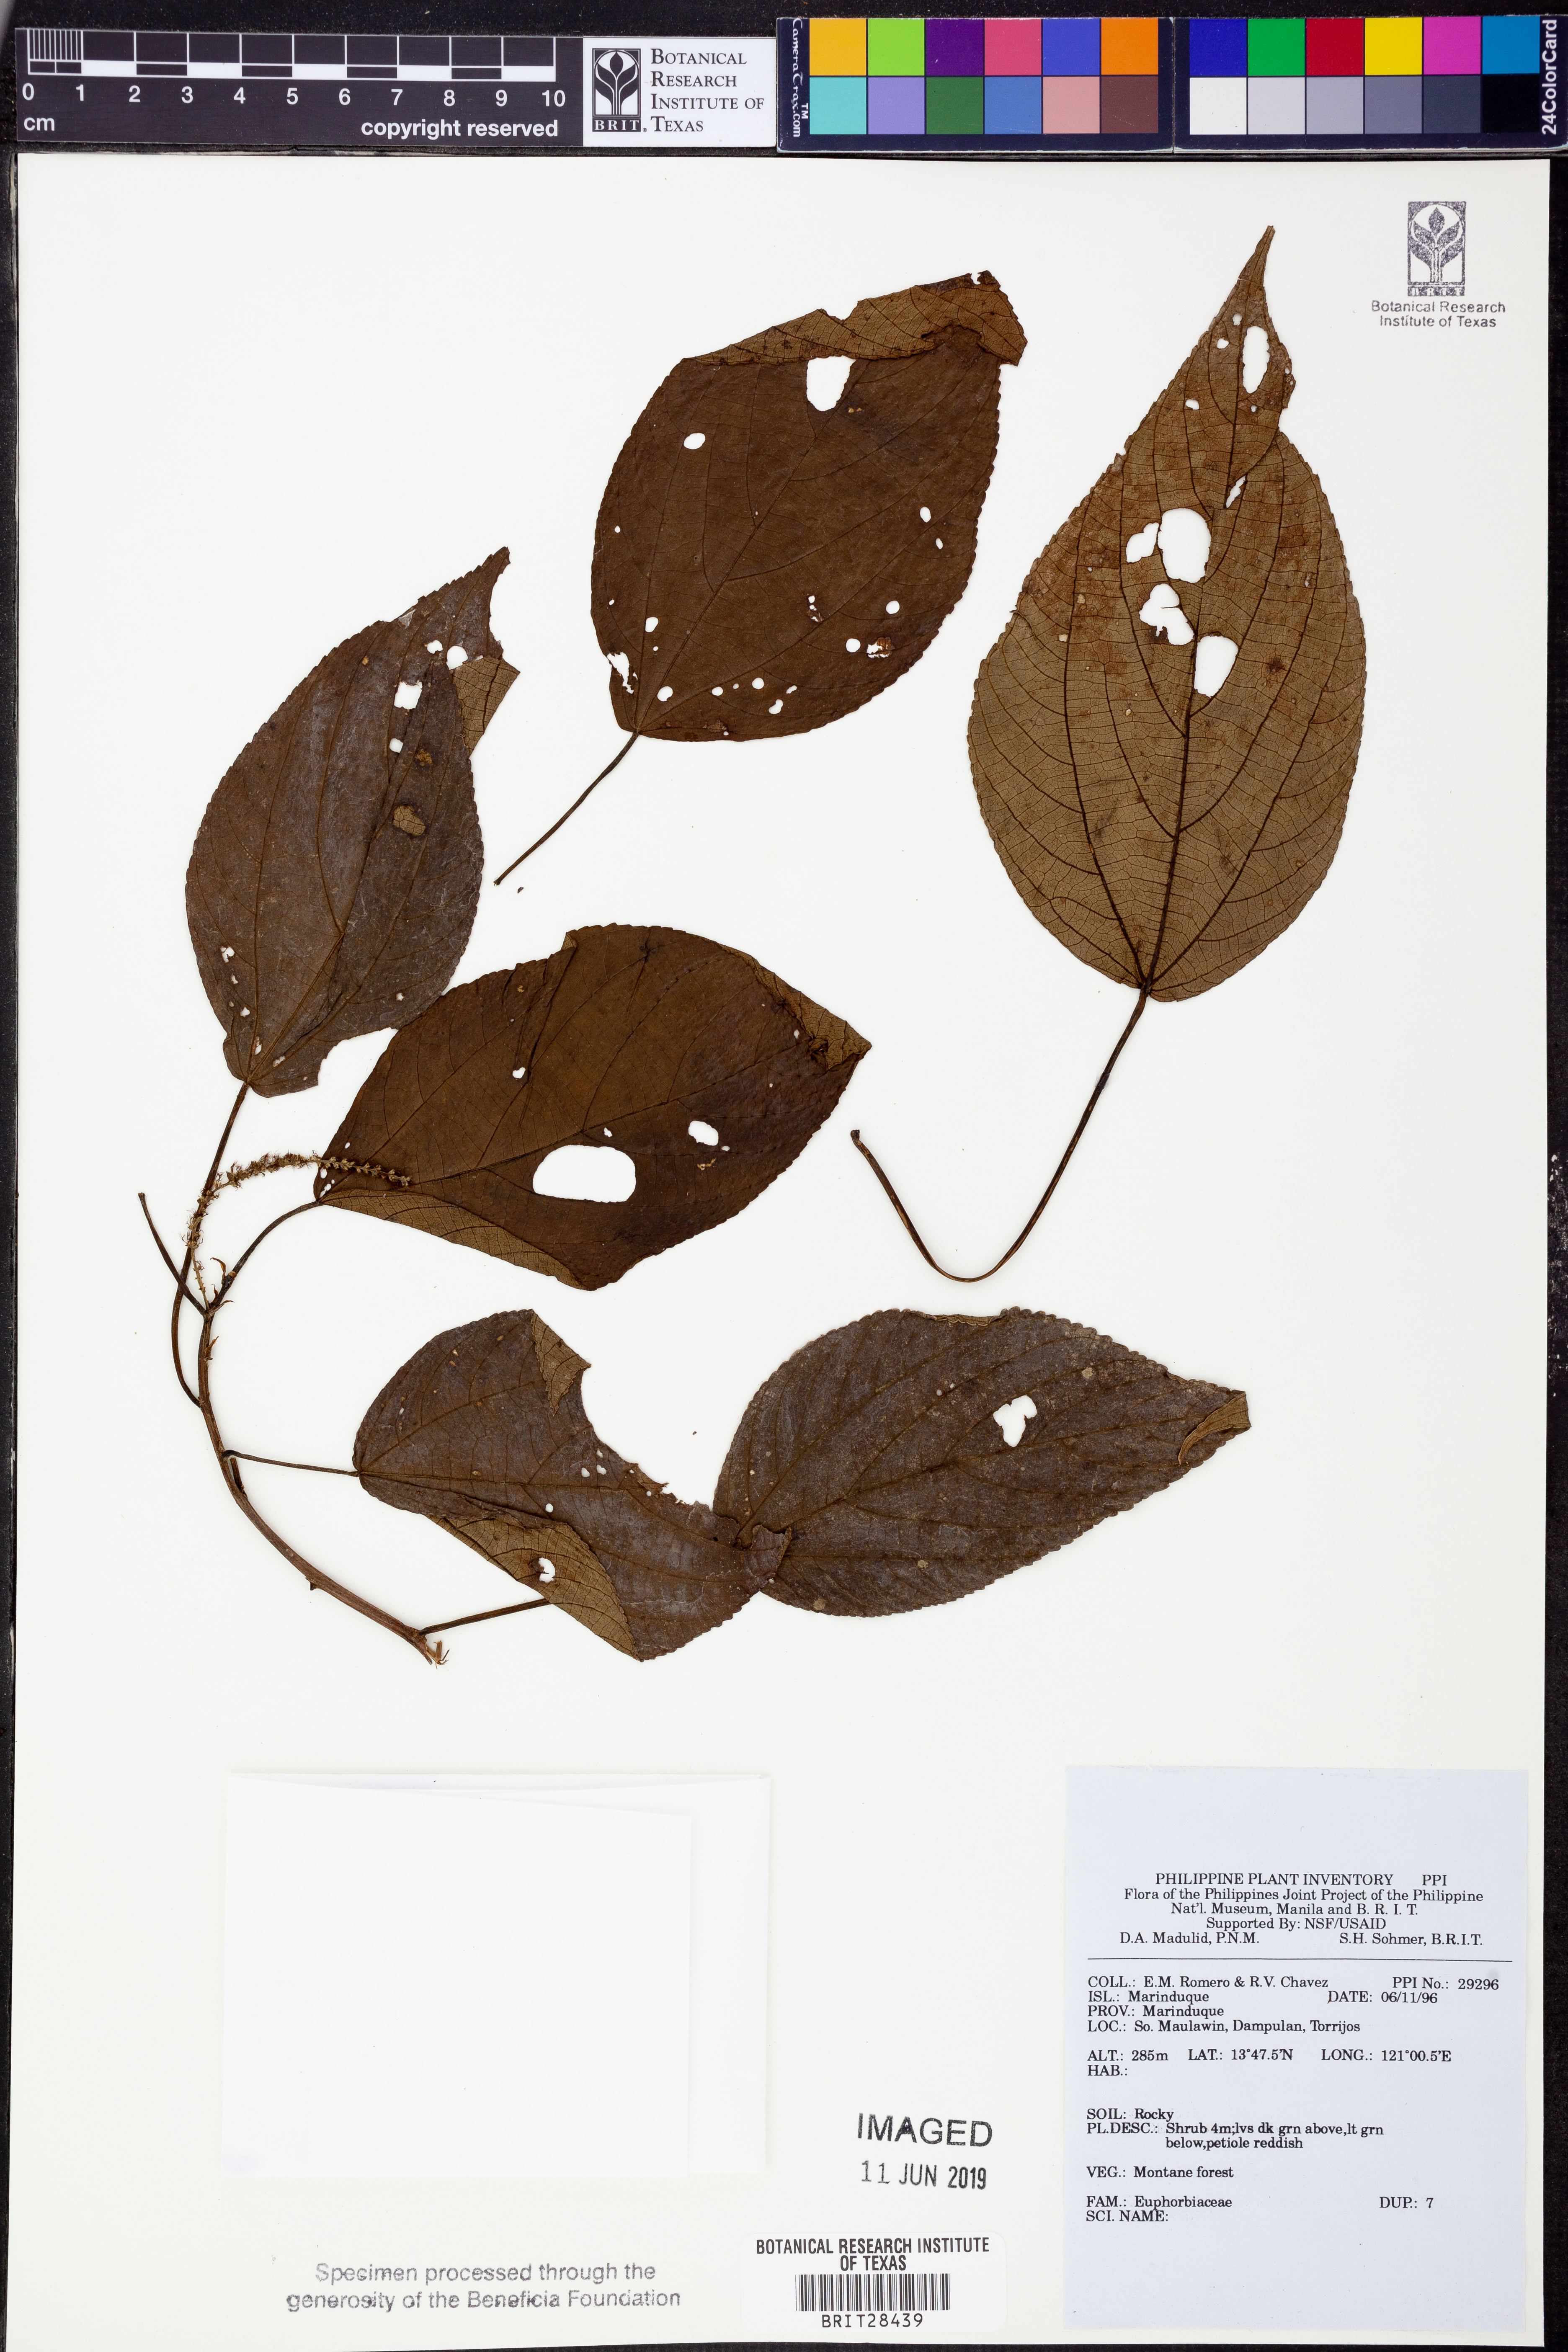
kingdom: Plantae
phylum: Tracheophyta
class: Magnoliopsida
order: Malpighiales
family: Euphorbiaceae
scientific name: Euphorbiaceae
